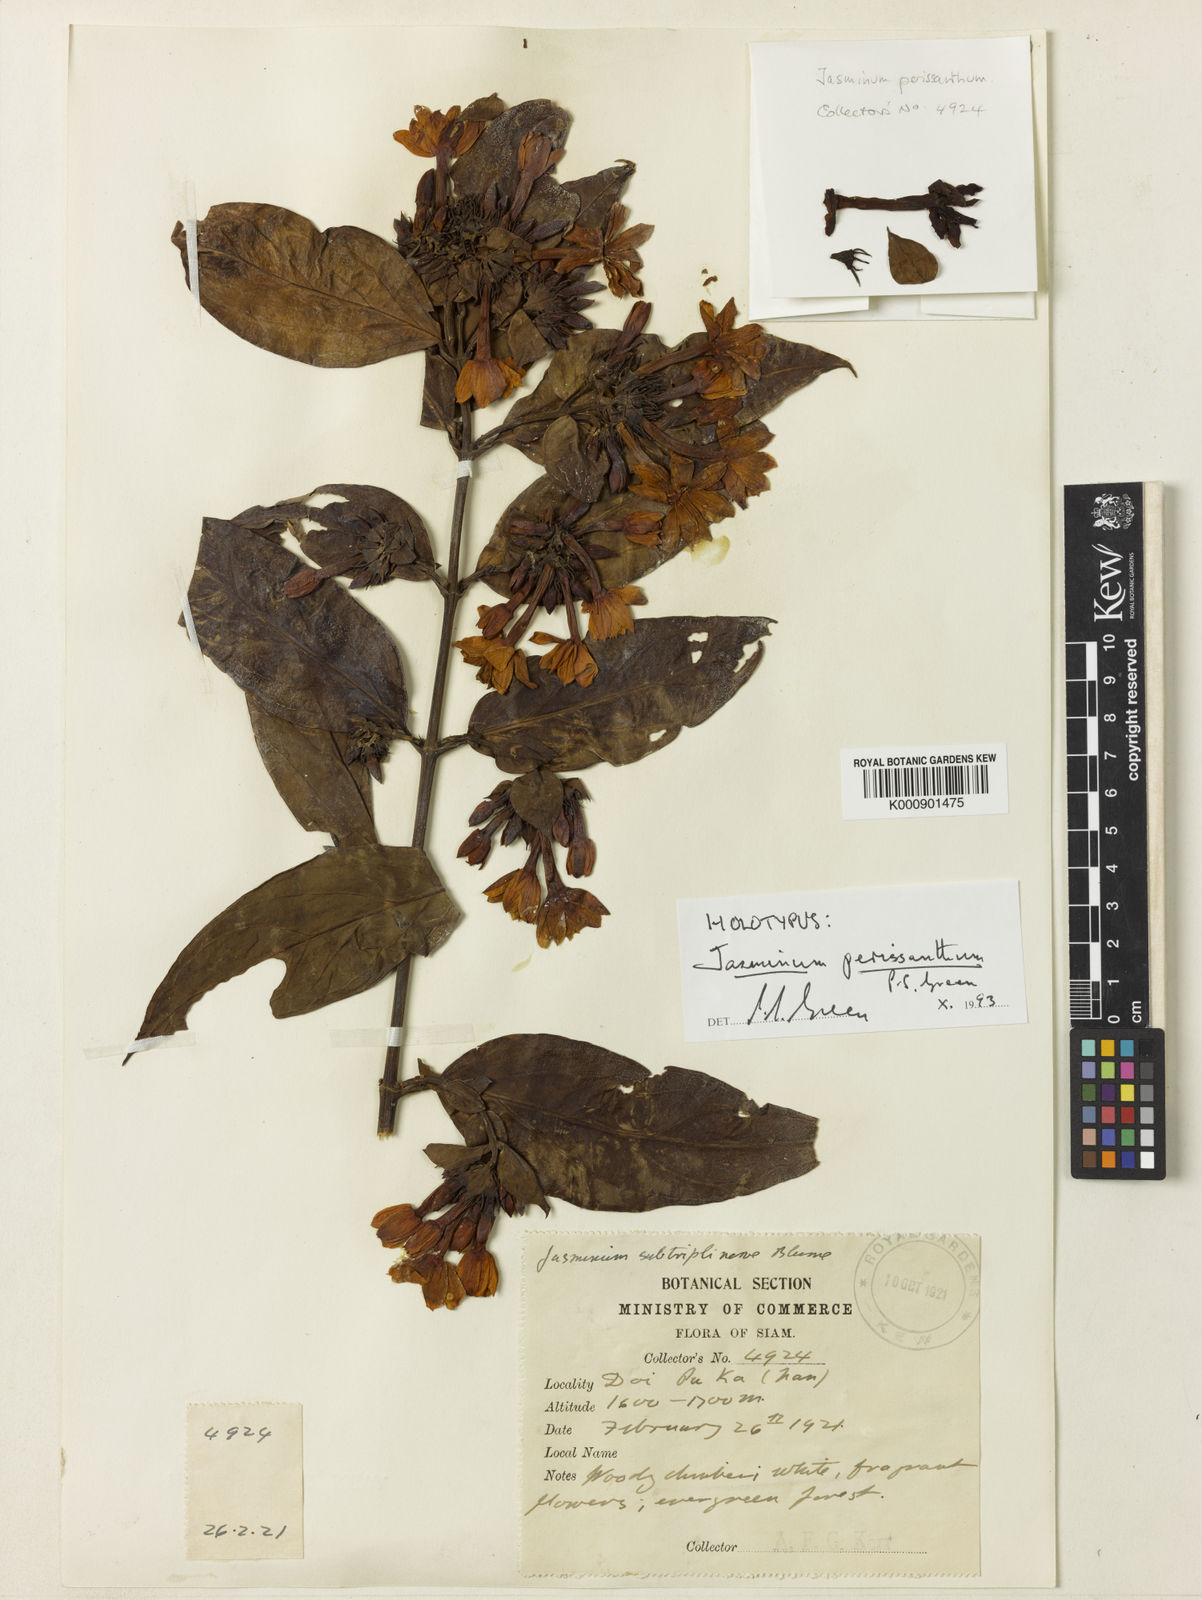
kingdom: Plantae
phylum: Tracheophyta
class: Magnoliopsida
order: Lamiales
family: Oleaceae
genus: Jasminum
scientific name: Jasminum perissanthum
